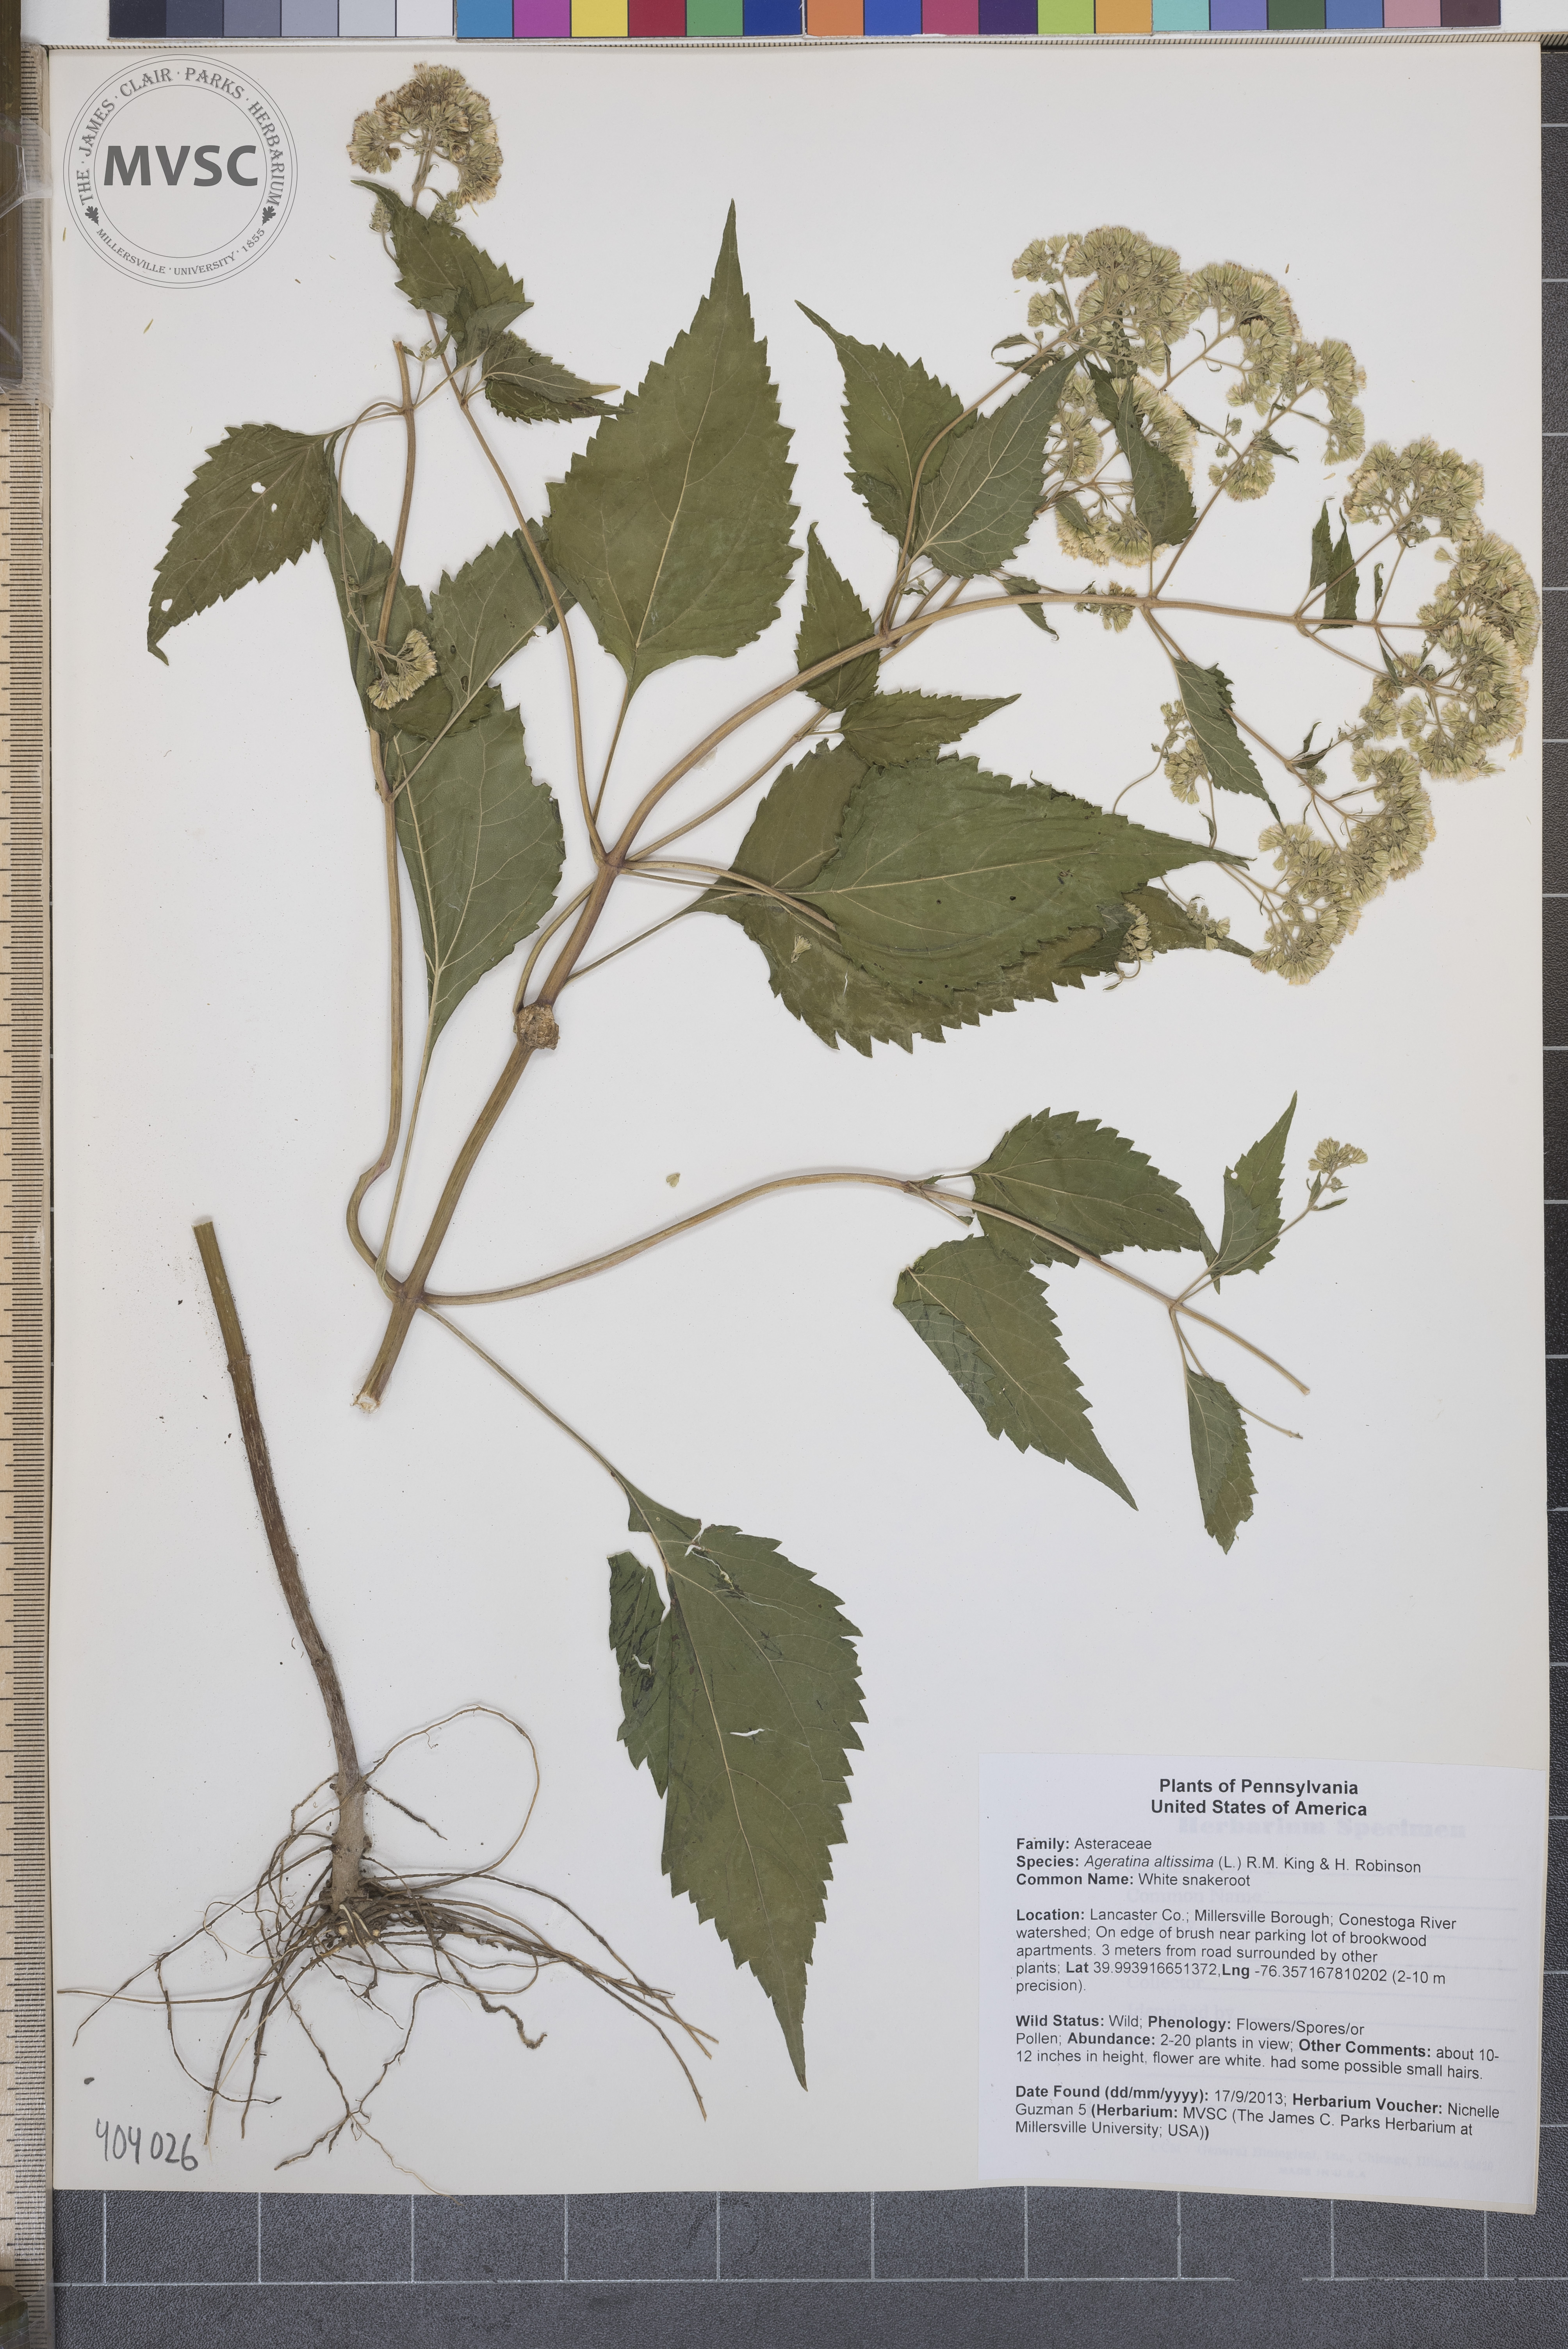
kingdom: Plantae
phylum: Tracheophyta
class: Magnoliopsida
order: Asterales
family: Asteraceae
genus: Ageratina
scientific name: Ageratina altissima
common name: White snakeroot
